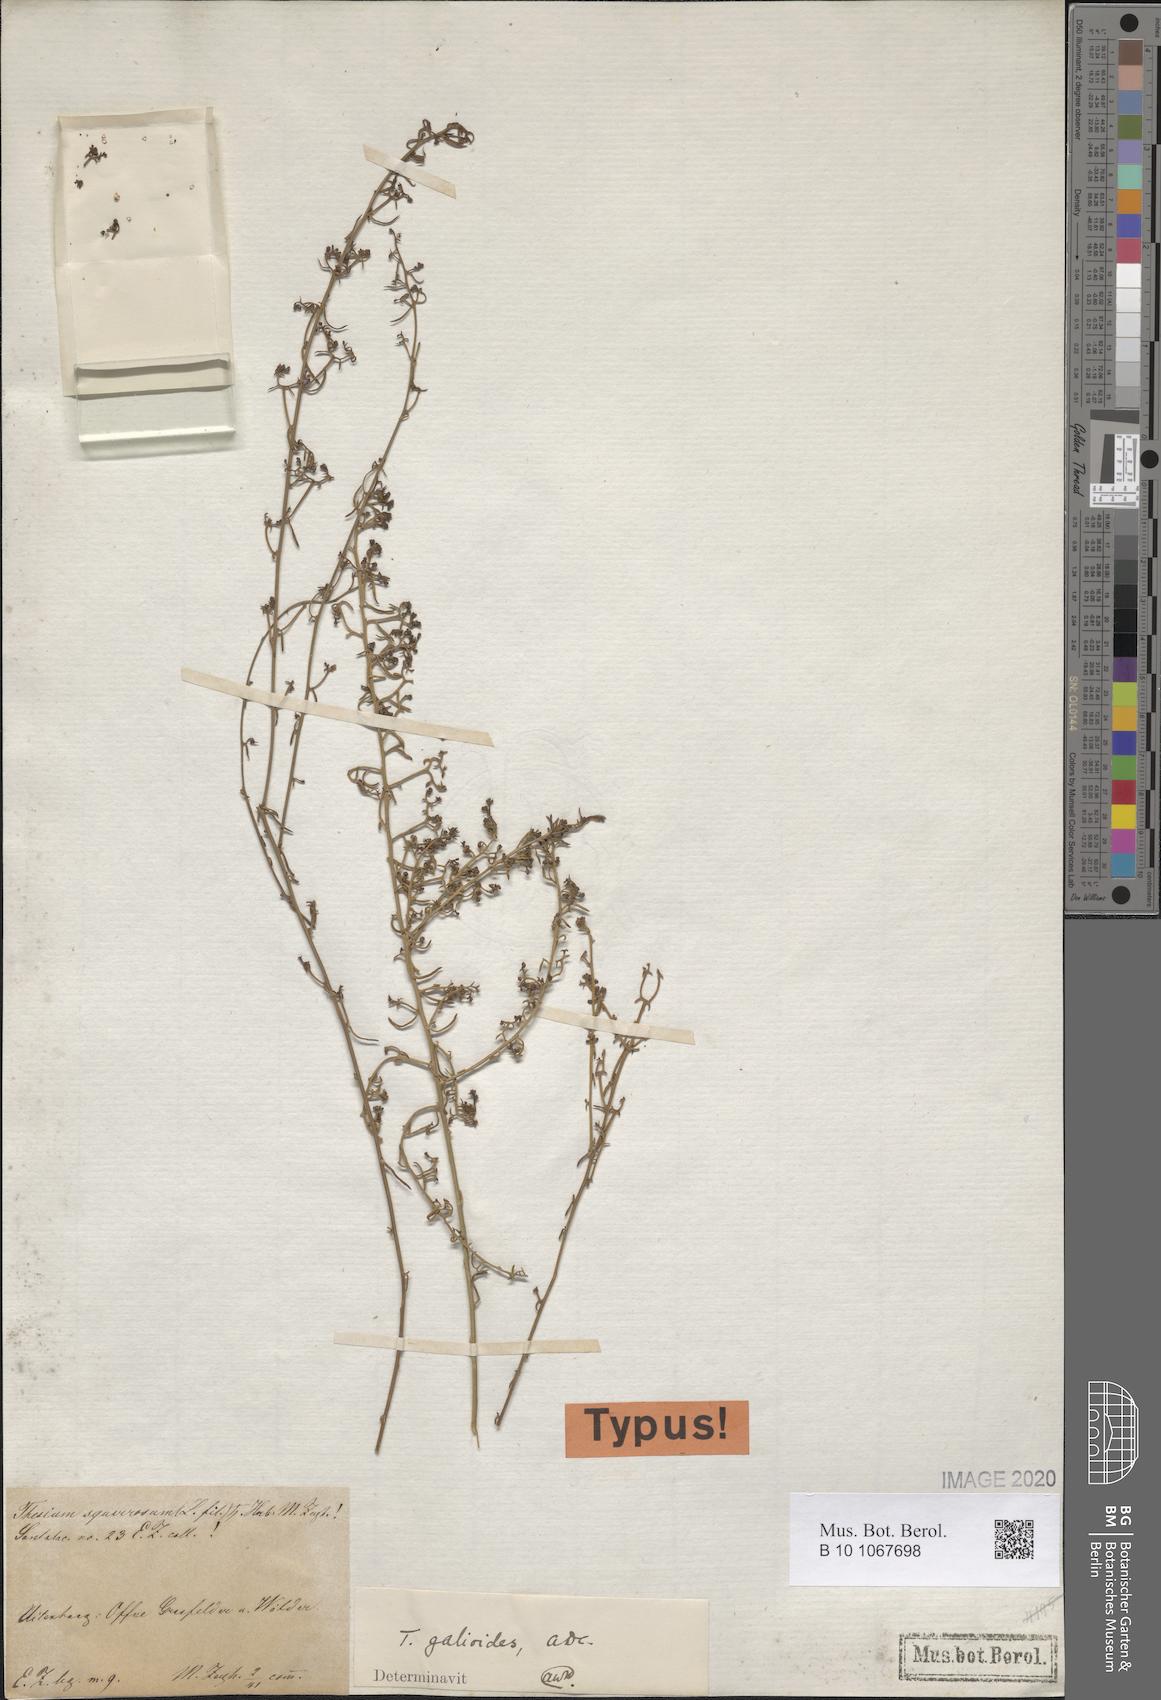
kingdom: Plantae
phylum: Tracheophyta
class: Magnoliopsida
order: Santalales
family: Thesiaceae
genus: Thesium
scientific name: Thesium galioides
